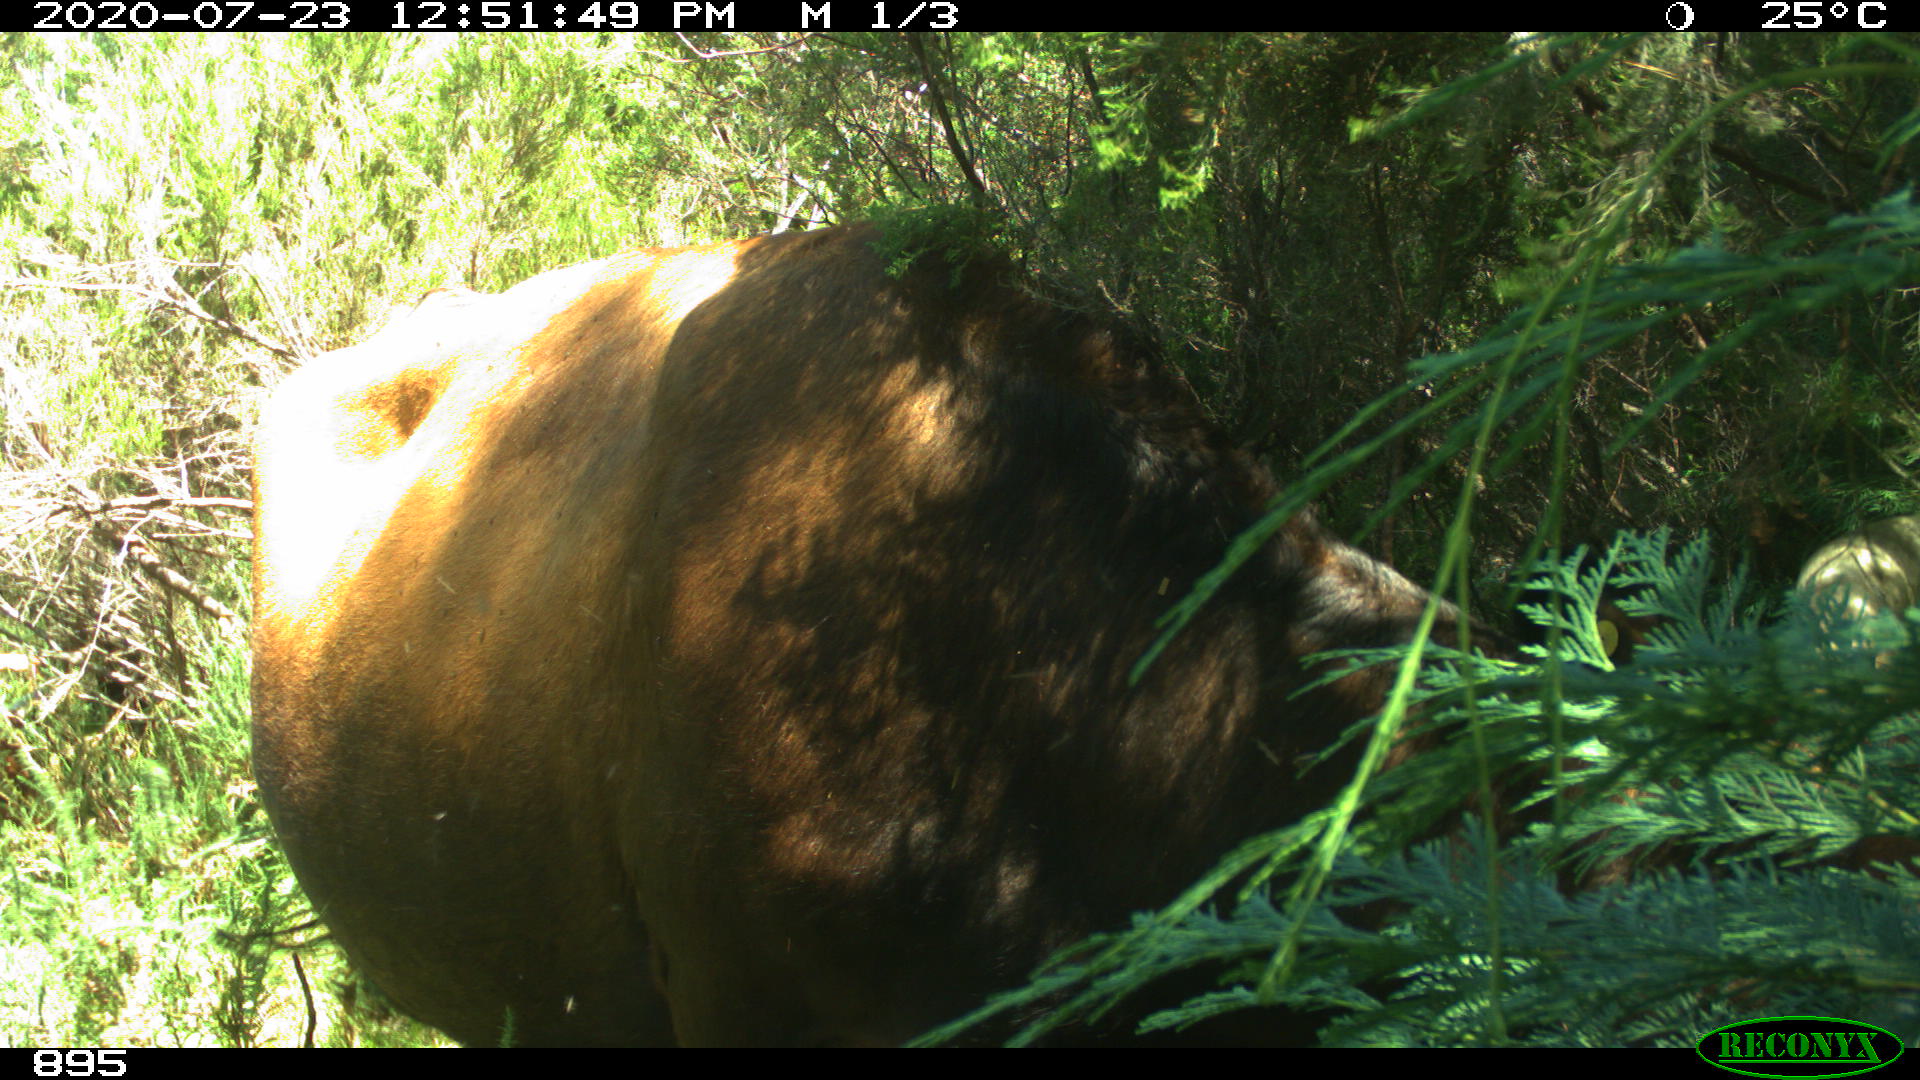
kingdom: Animalia
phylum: Chordata
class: Mammalia
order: Artiodactyla
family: Bovidae
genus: Bos
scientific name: Bos taurus
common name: Domesticated cattle
